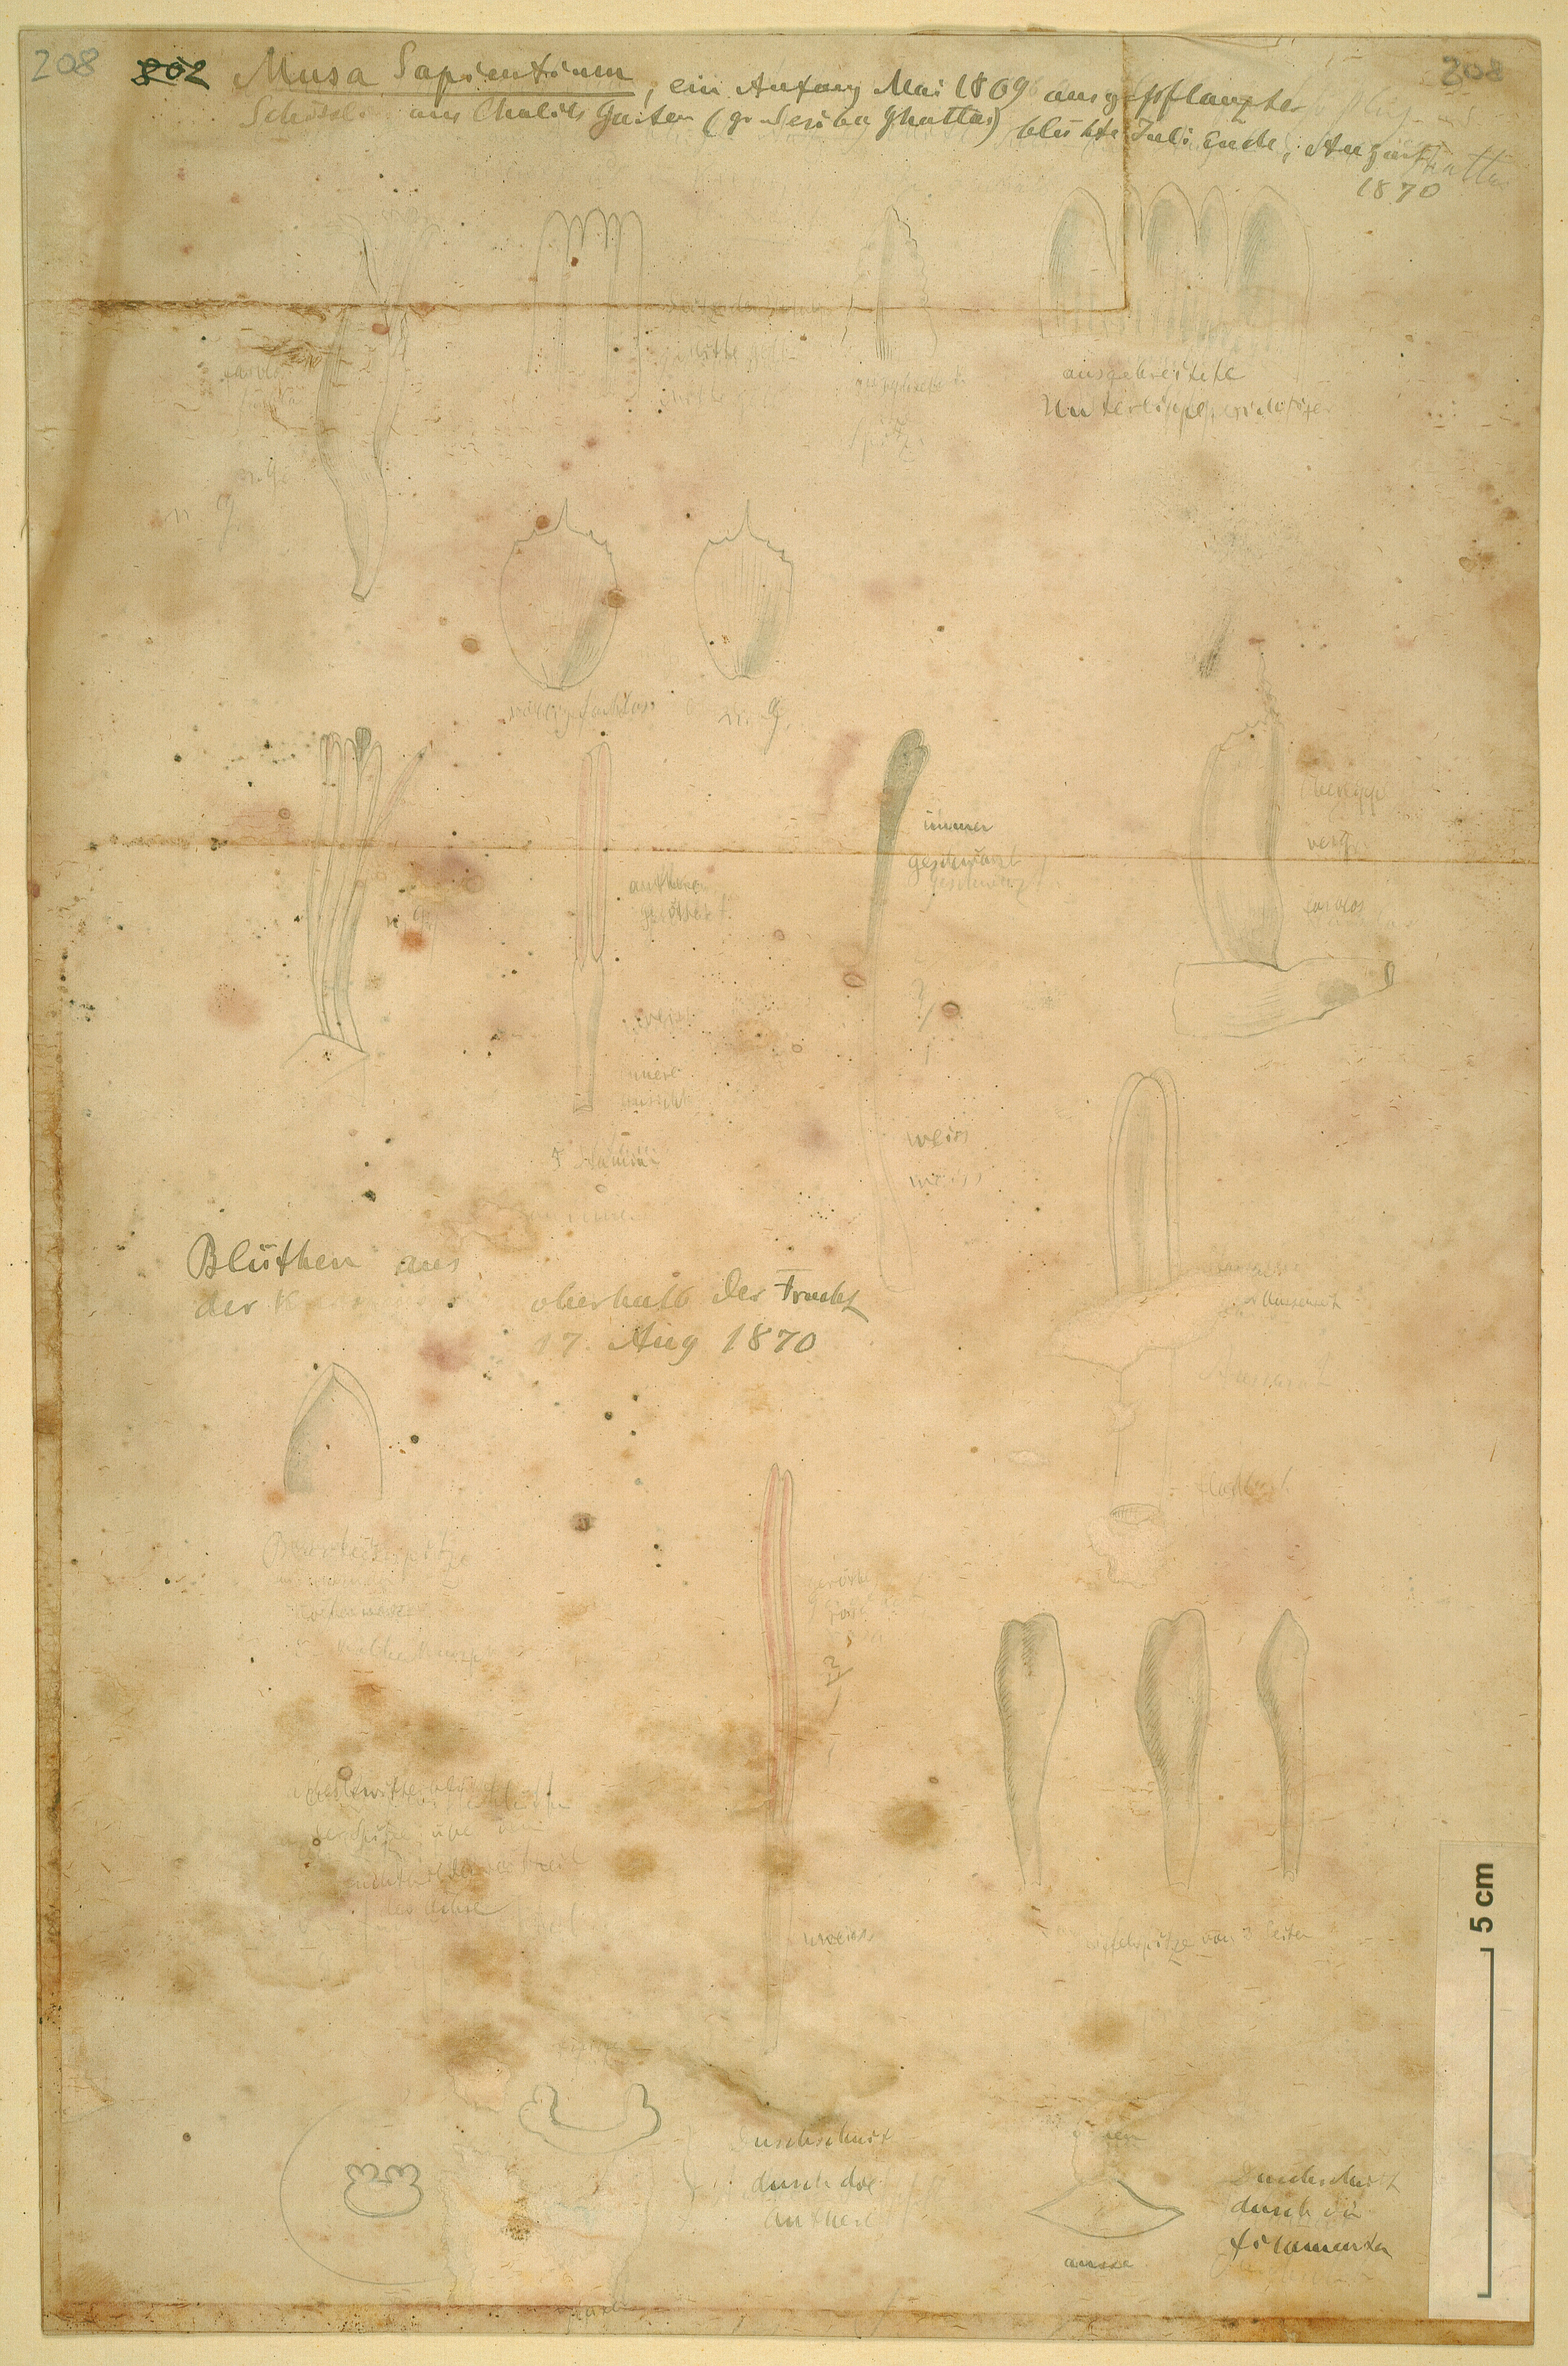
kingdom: Plantae
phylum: Tracheophyta
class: Liliopsida
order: Zingiberales
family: Musaceae
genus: Musa
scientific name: Musa paradisiaca
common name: French plantain
